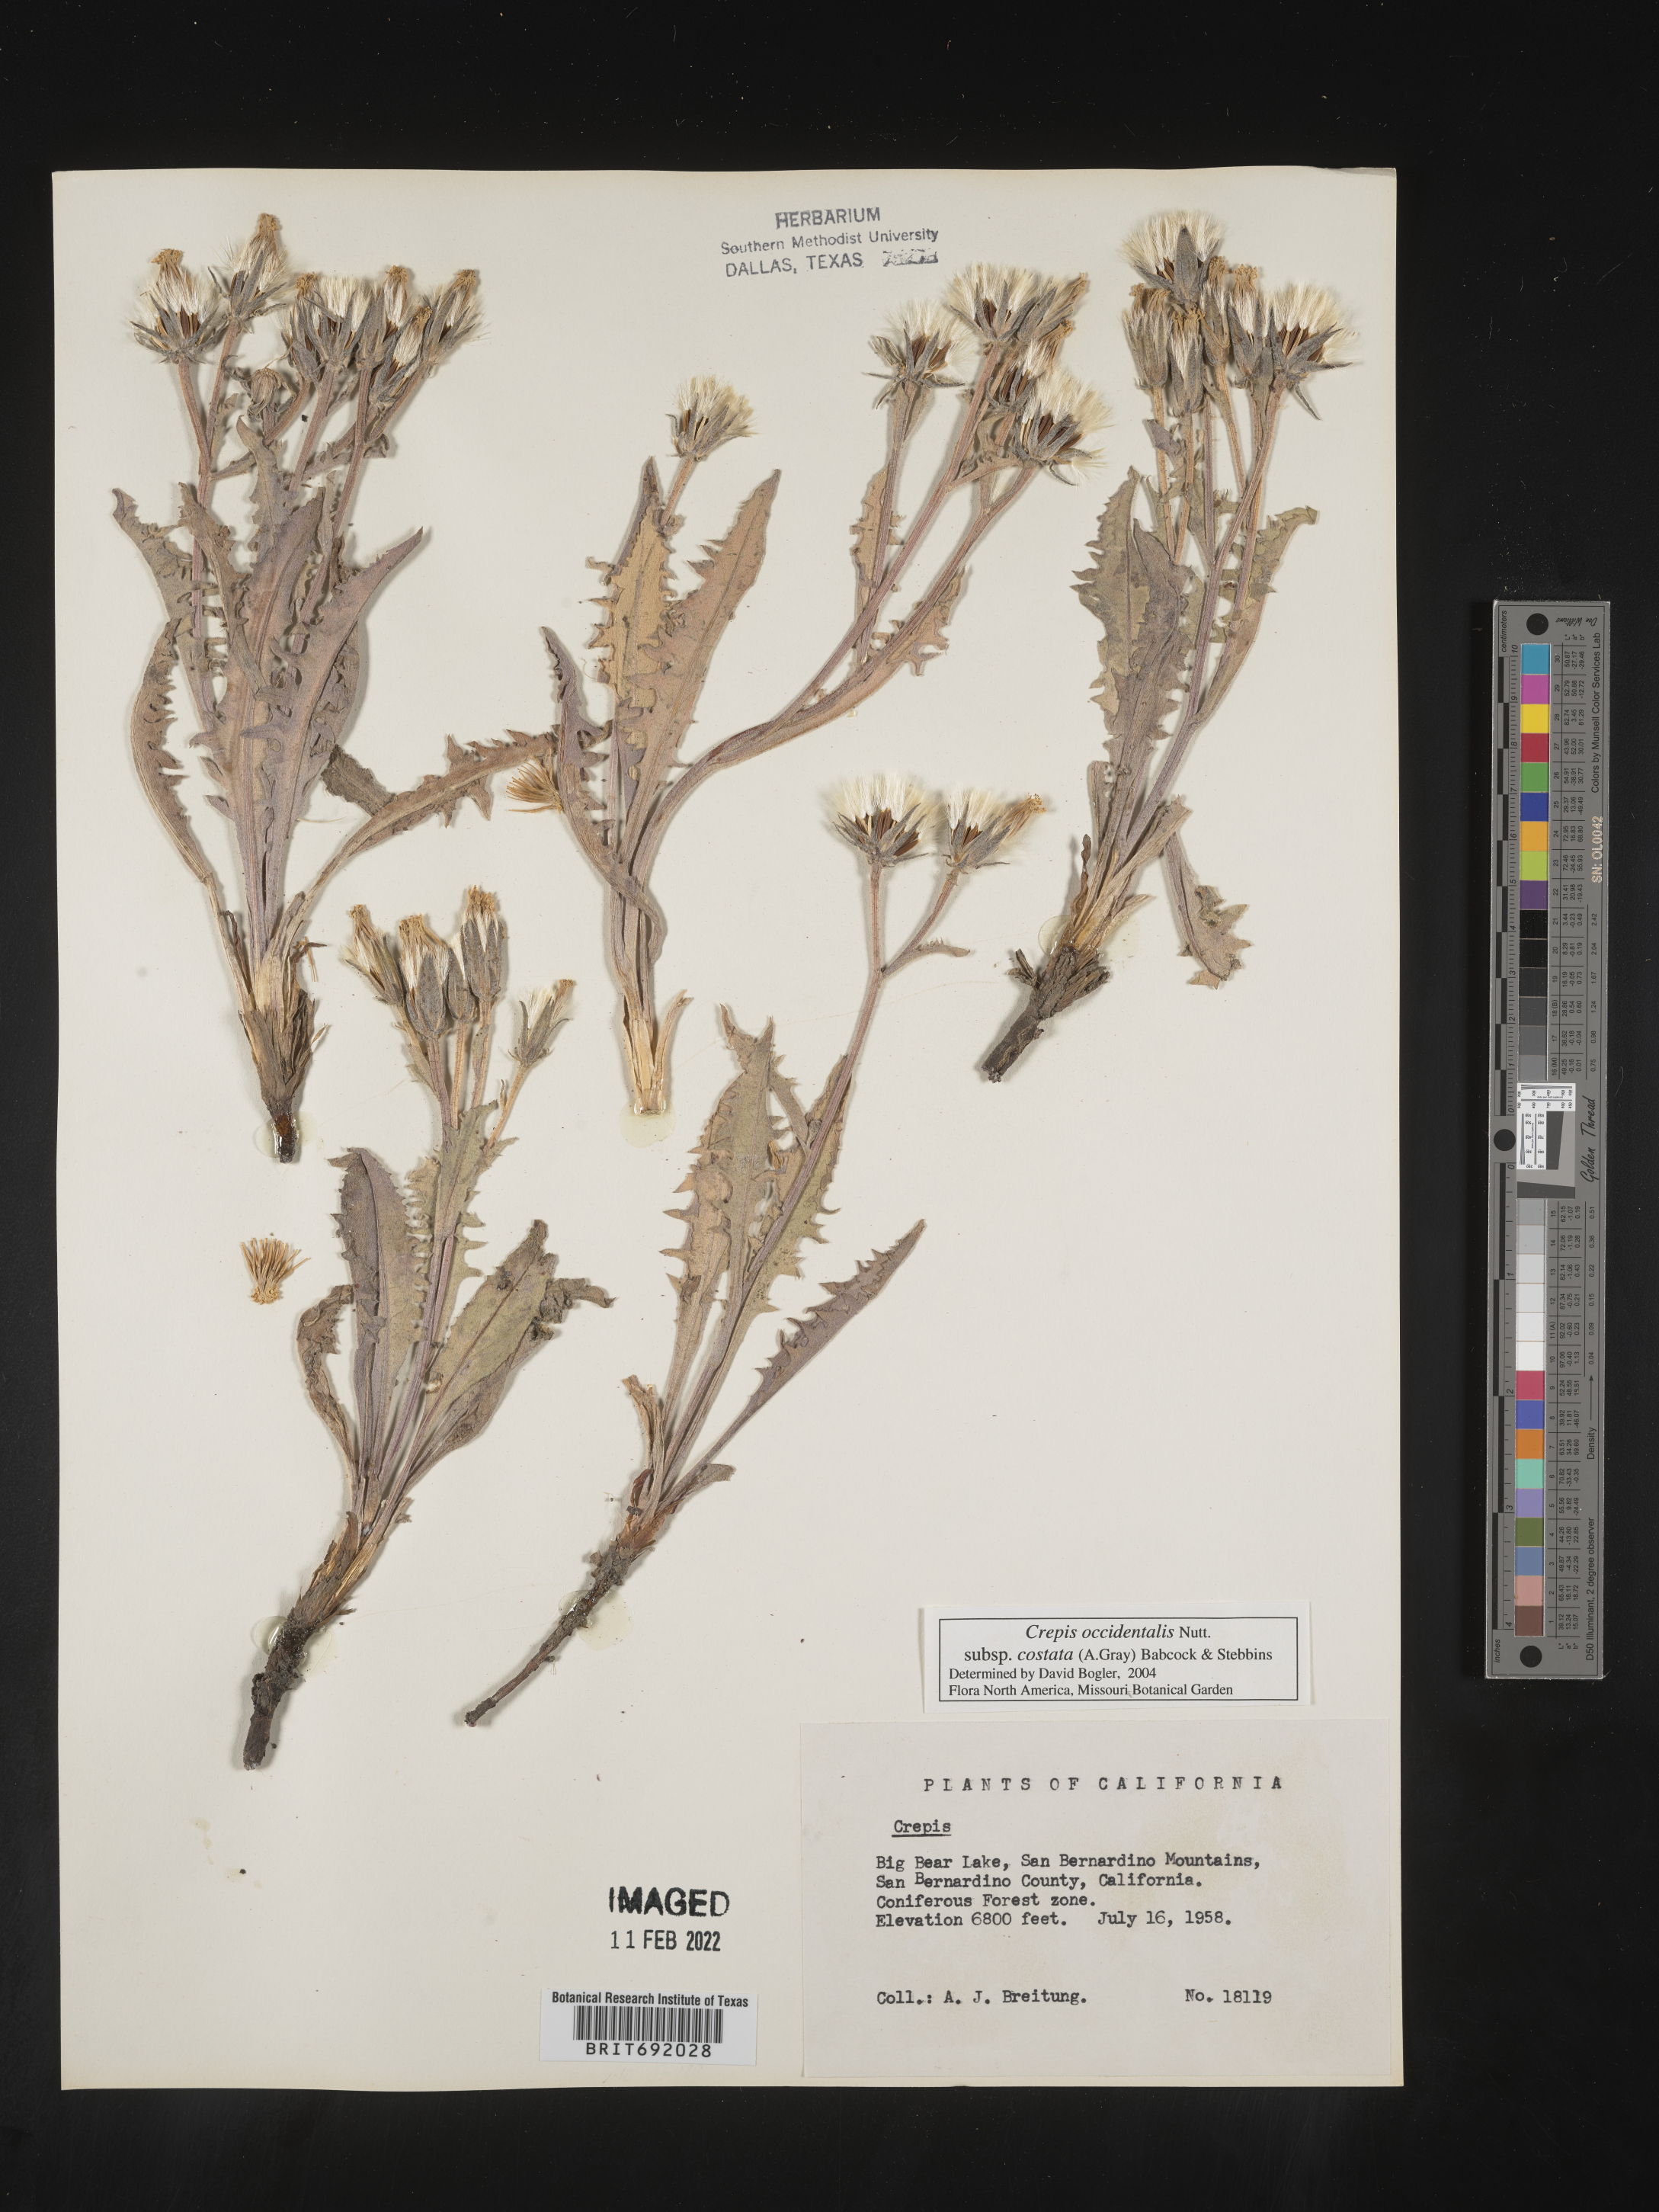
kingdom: Plantae
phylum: Tracheophyta
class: Magnoliopsida
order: Asterales
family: Asteraceae
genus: Crepis
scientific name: Crepis occidentalis
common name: Gray hawk's-beard
